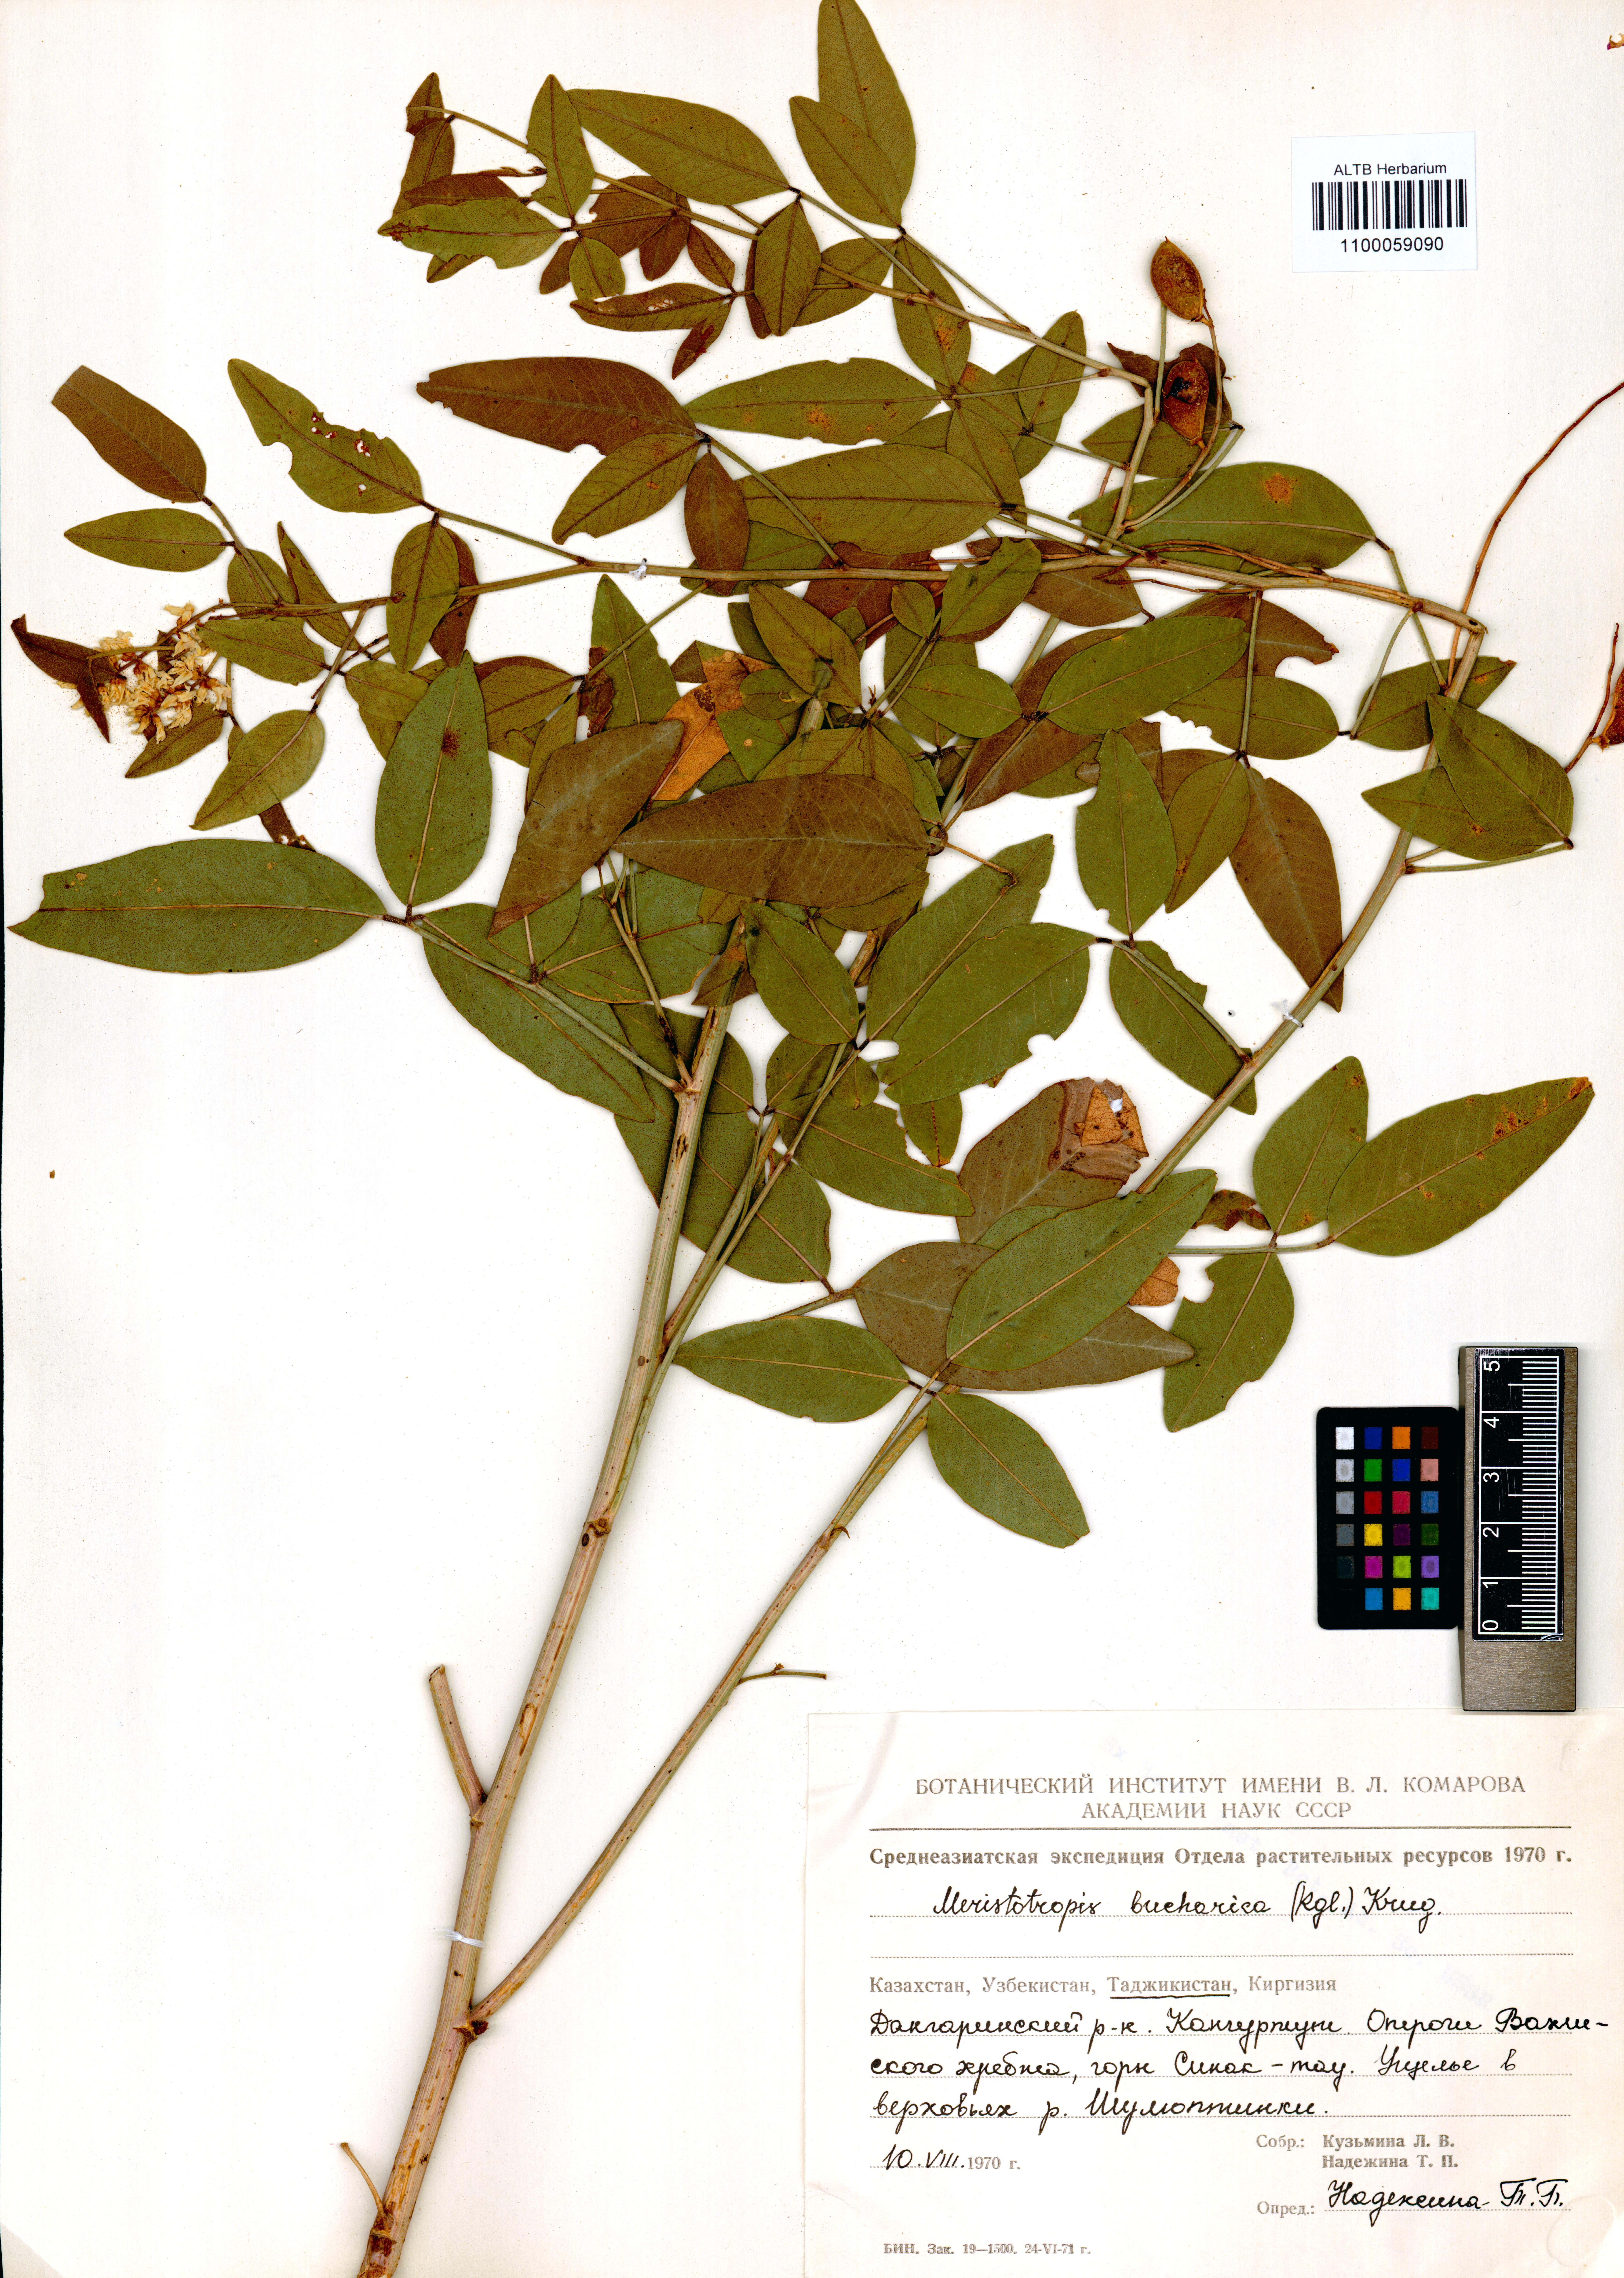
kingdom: Plantae
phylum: Tracheophyta
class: Magnoliopsida
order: Fabales
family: Fabaceae
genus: Glycyrrhiza
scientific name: Glycyrrhiza bucharica
